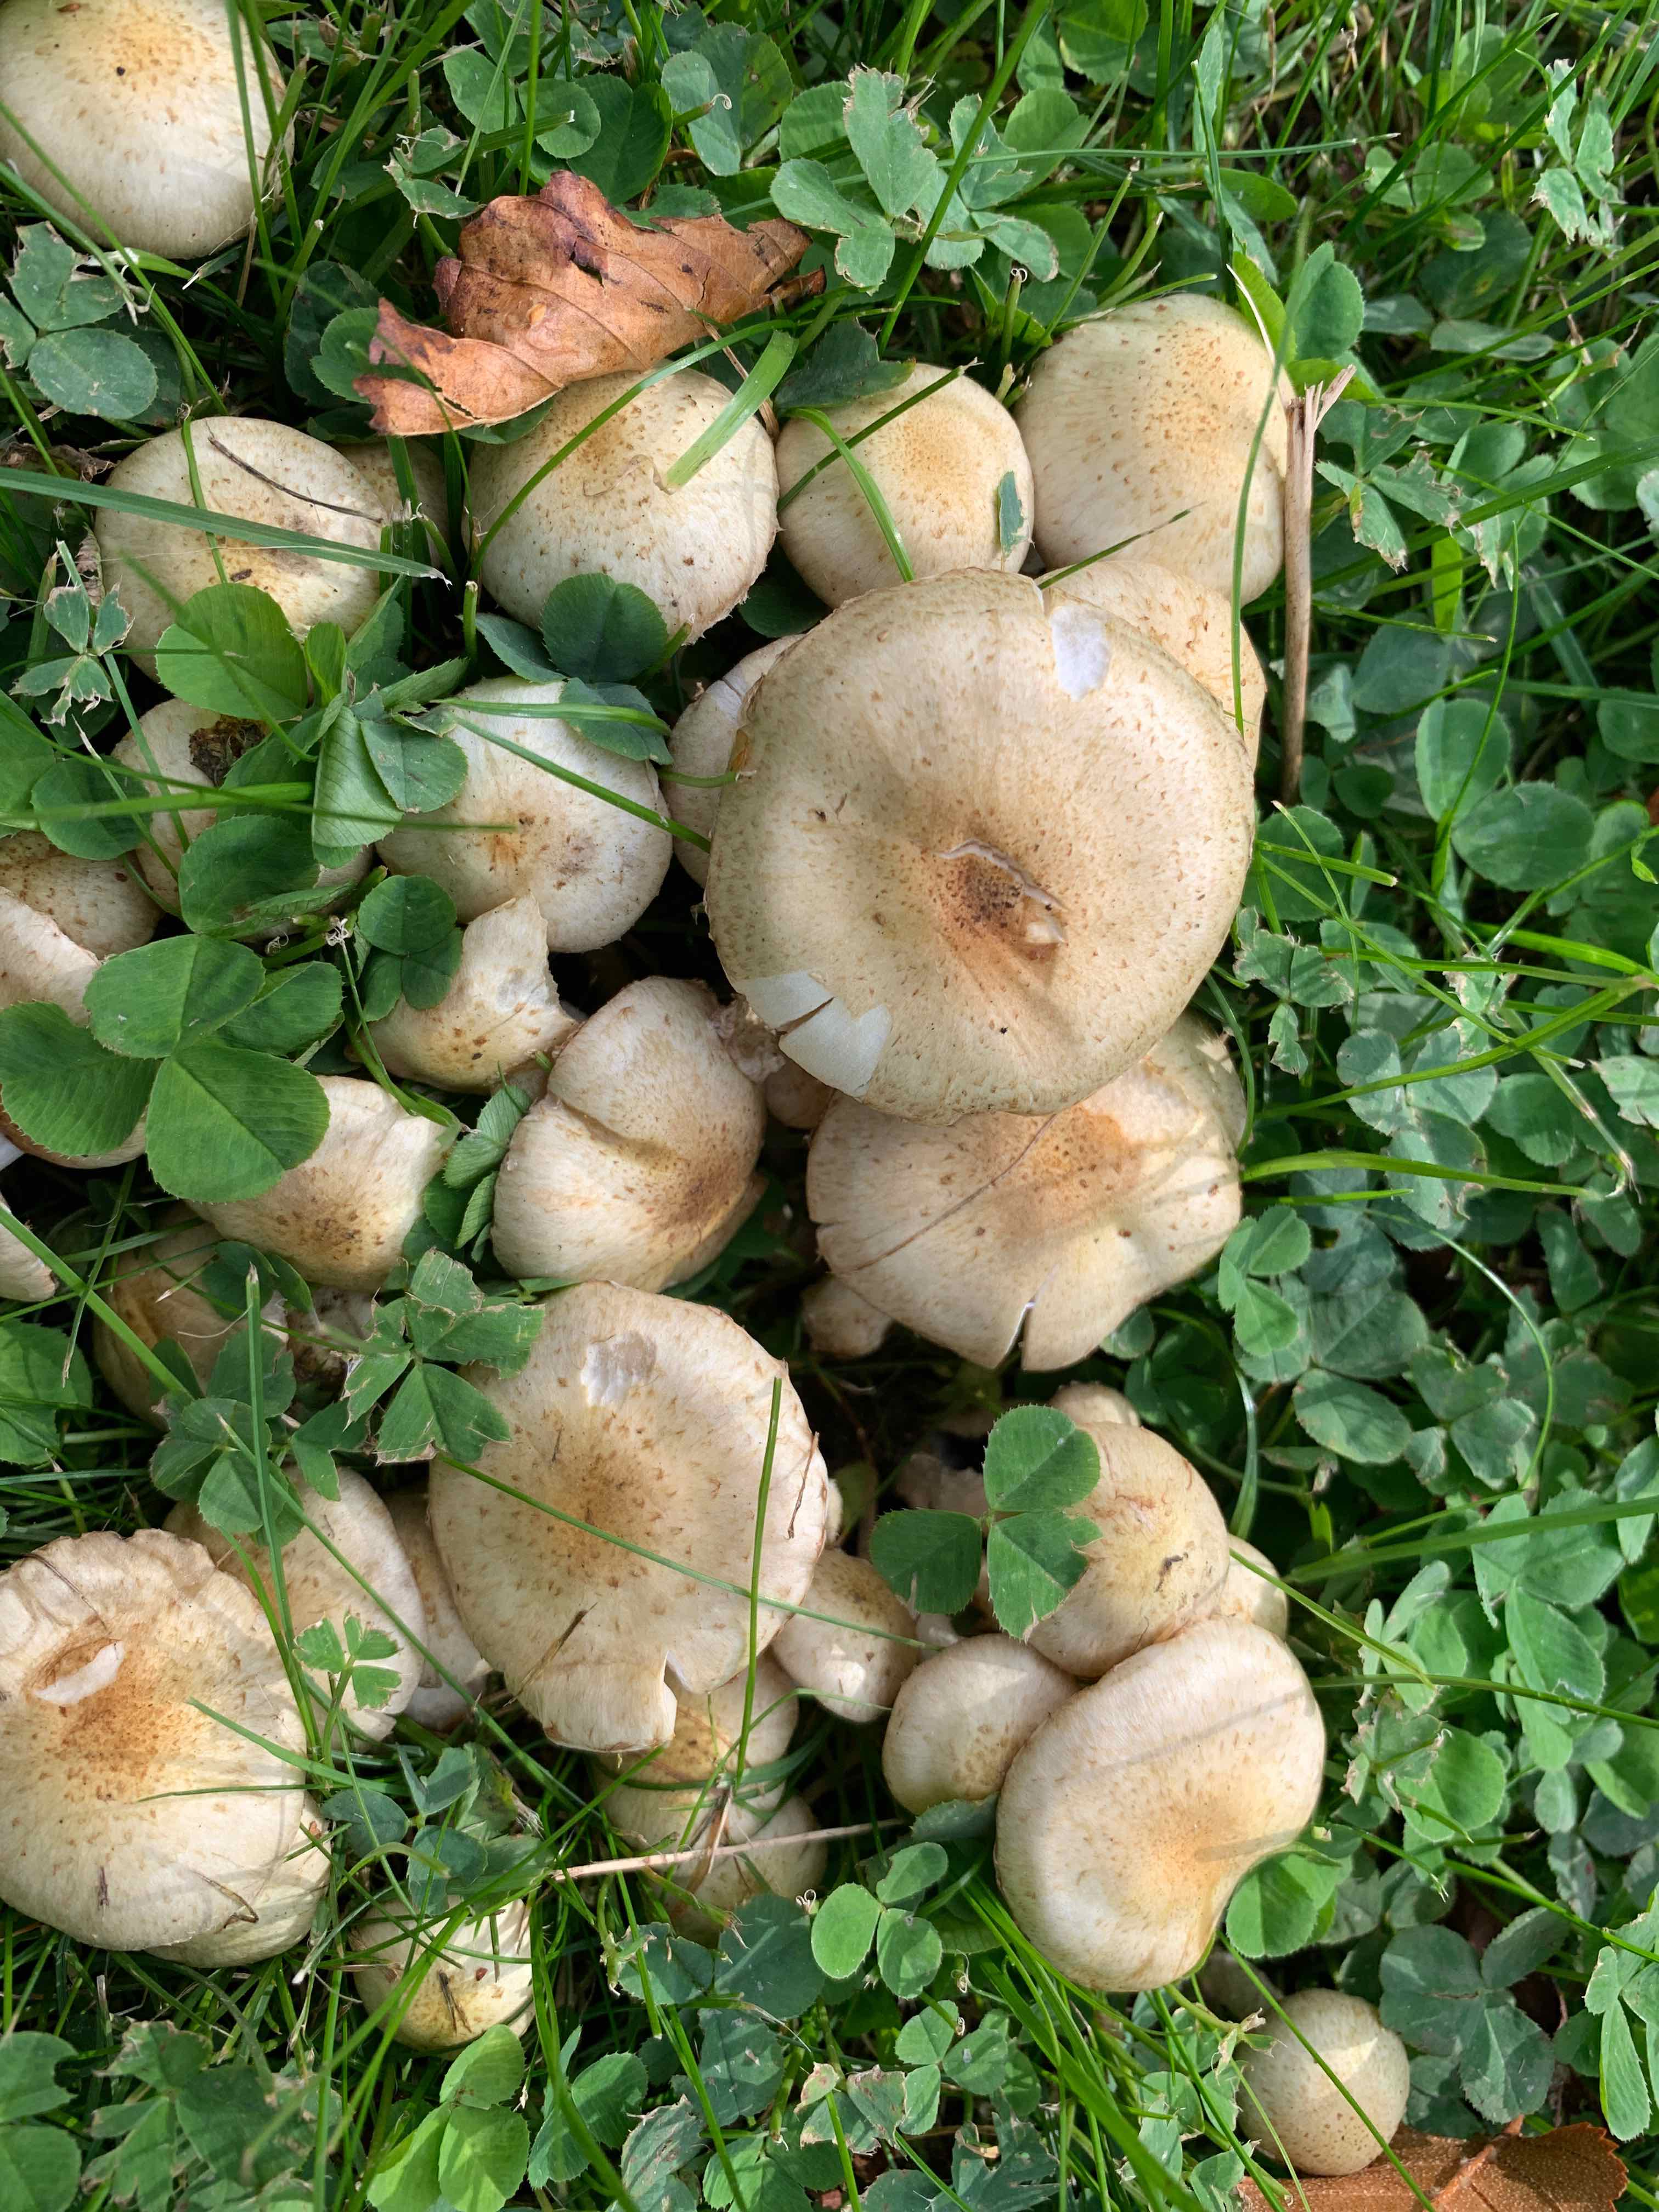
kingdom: Fungi
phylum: Basidiomycota
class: Agaricomycetes
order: Agaricales
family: Strophariaceae
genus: Pholiota
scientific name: Pholiota gummosa
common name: grøngul skælhat
